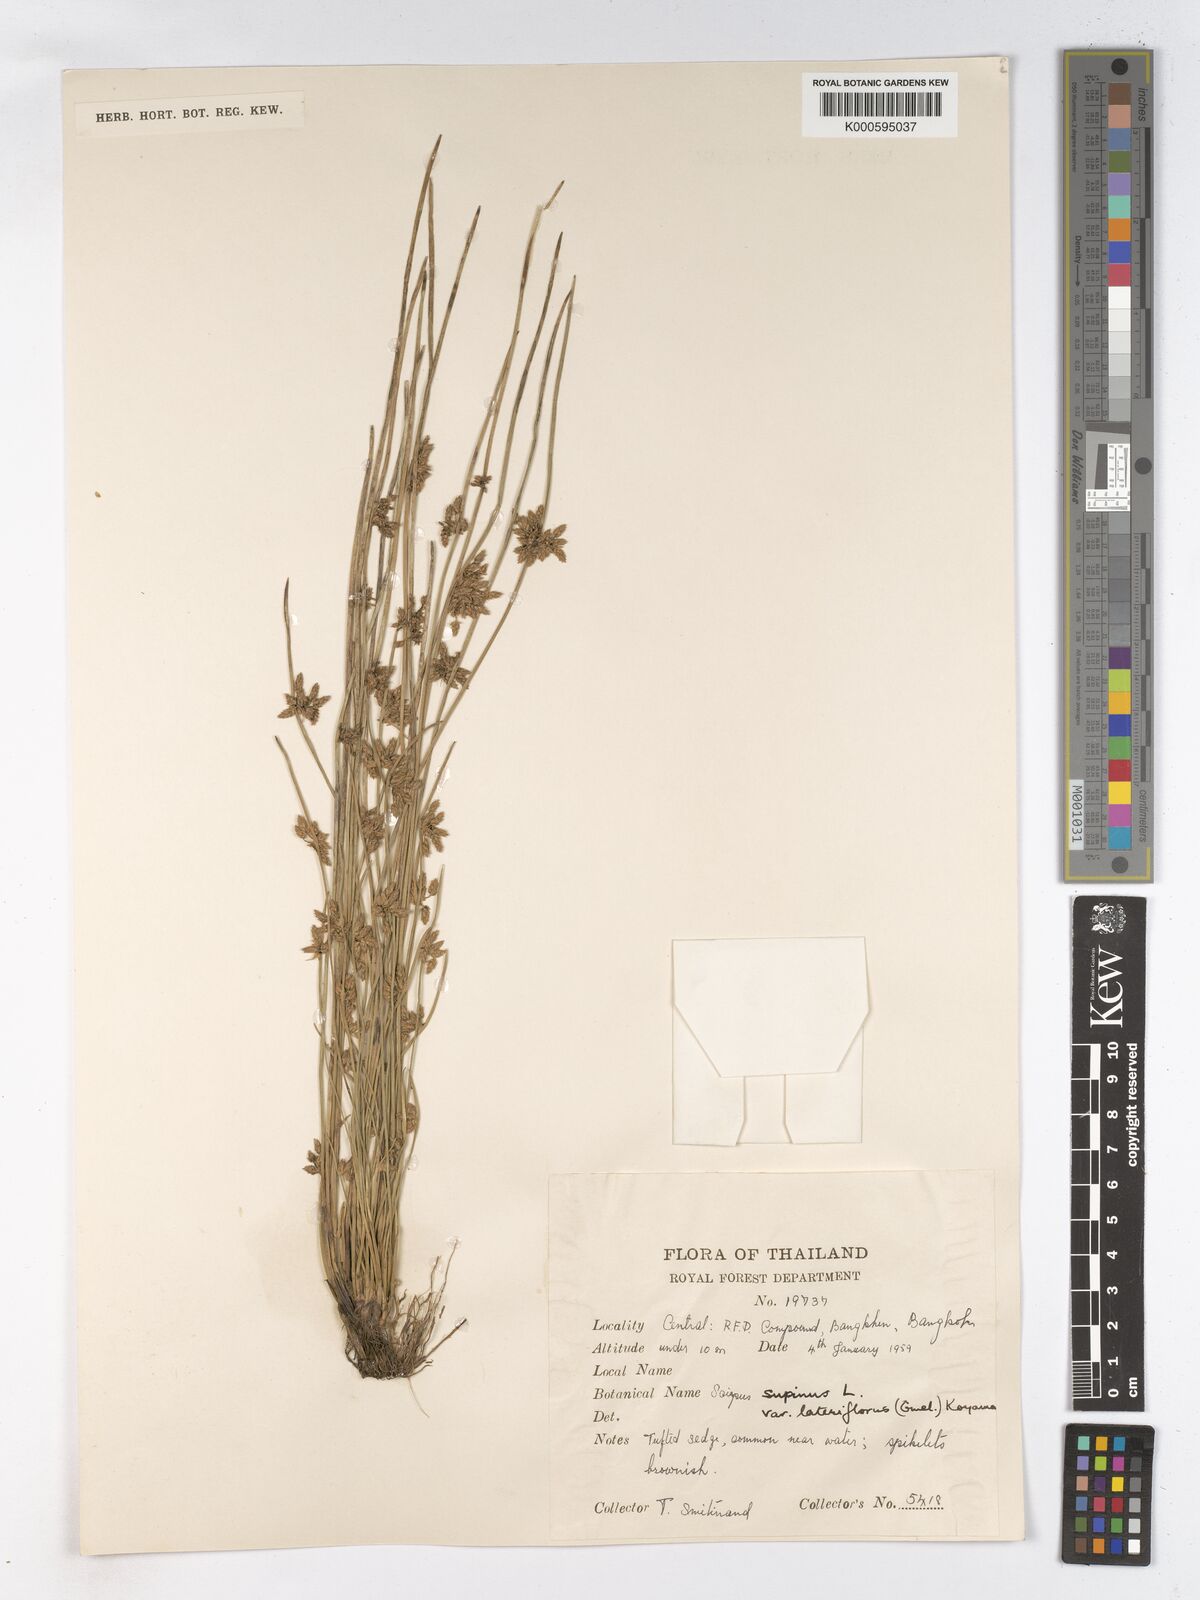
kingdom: Plantae
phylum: Tracheophyta
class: Liliopsida
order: Poales
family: Cyperaceae
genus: Schoenoplectiella
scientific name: Schoenoplectiella supina
